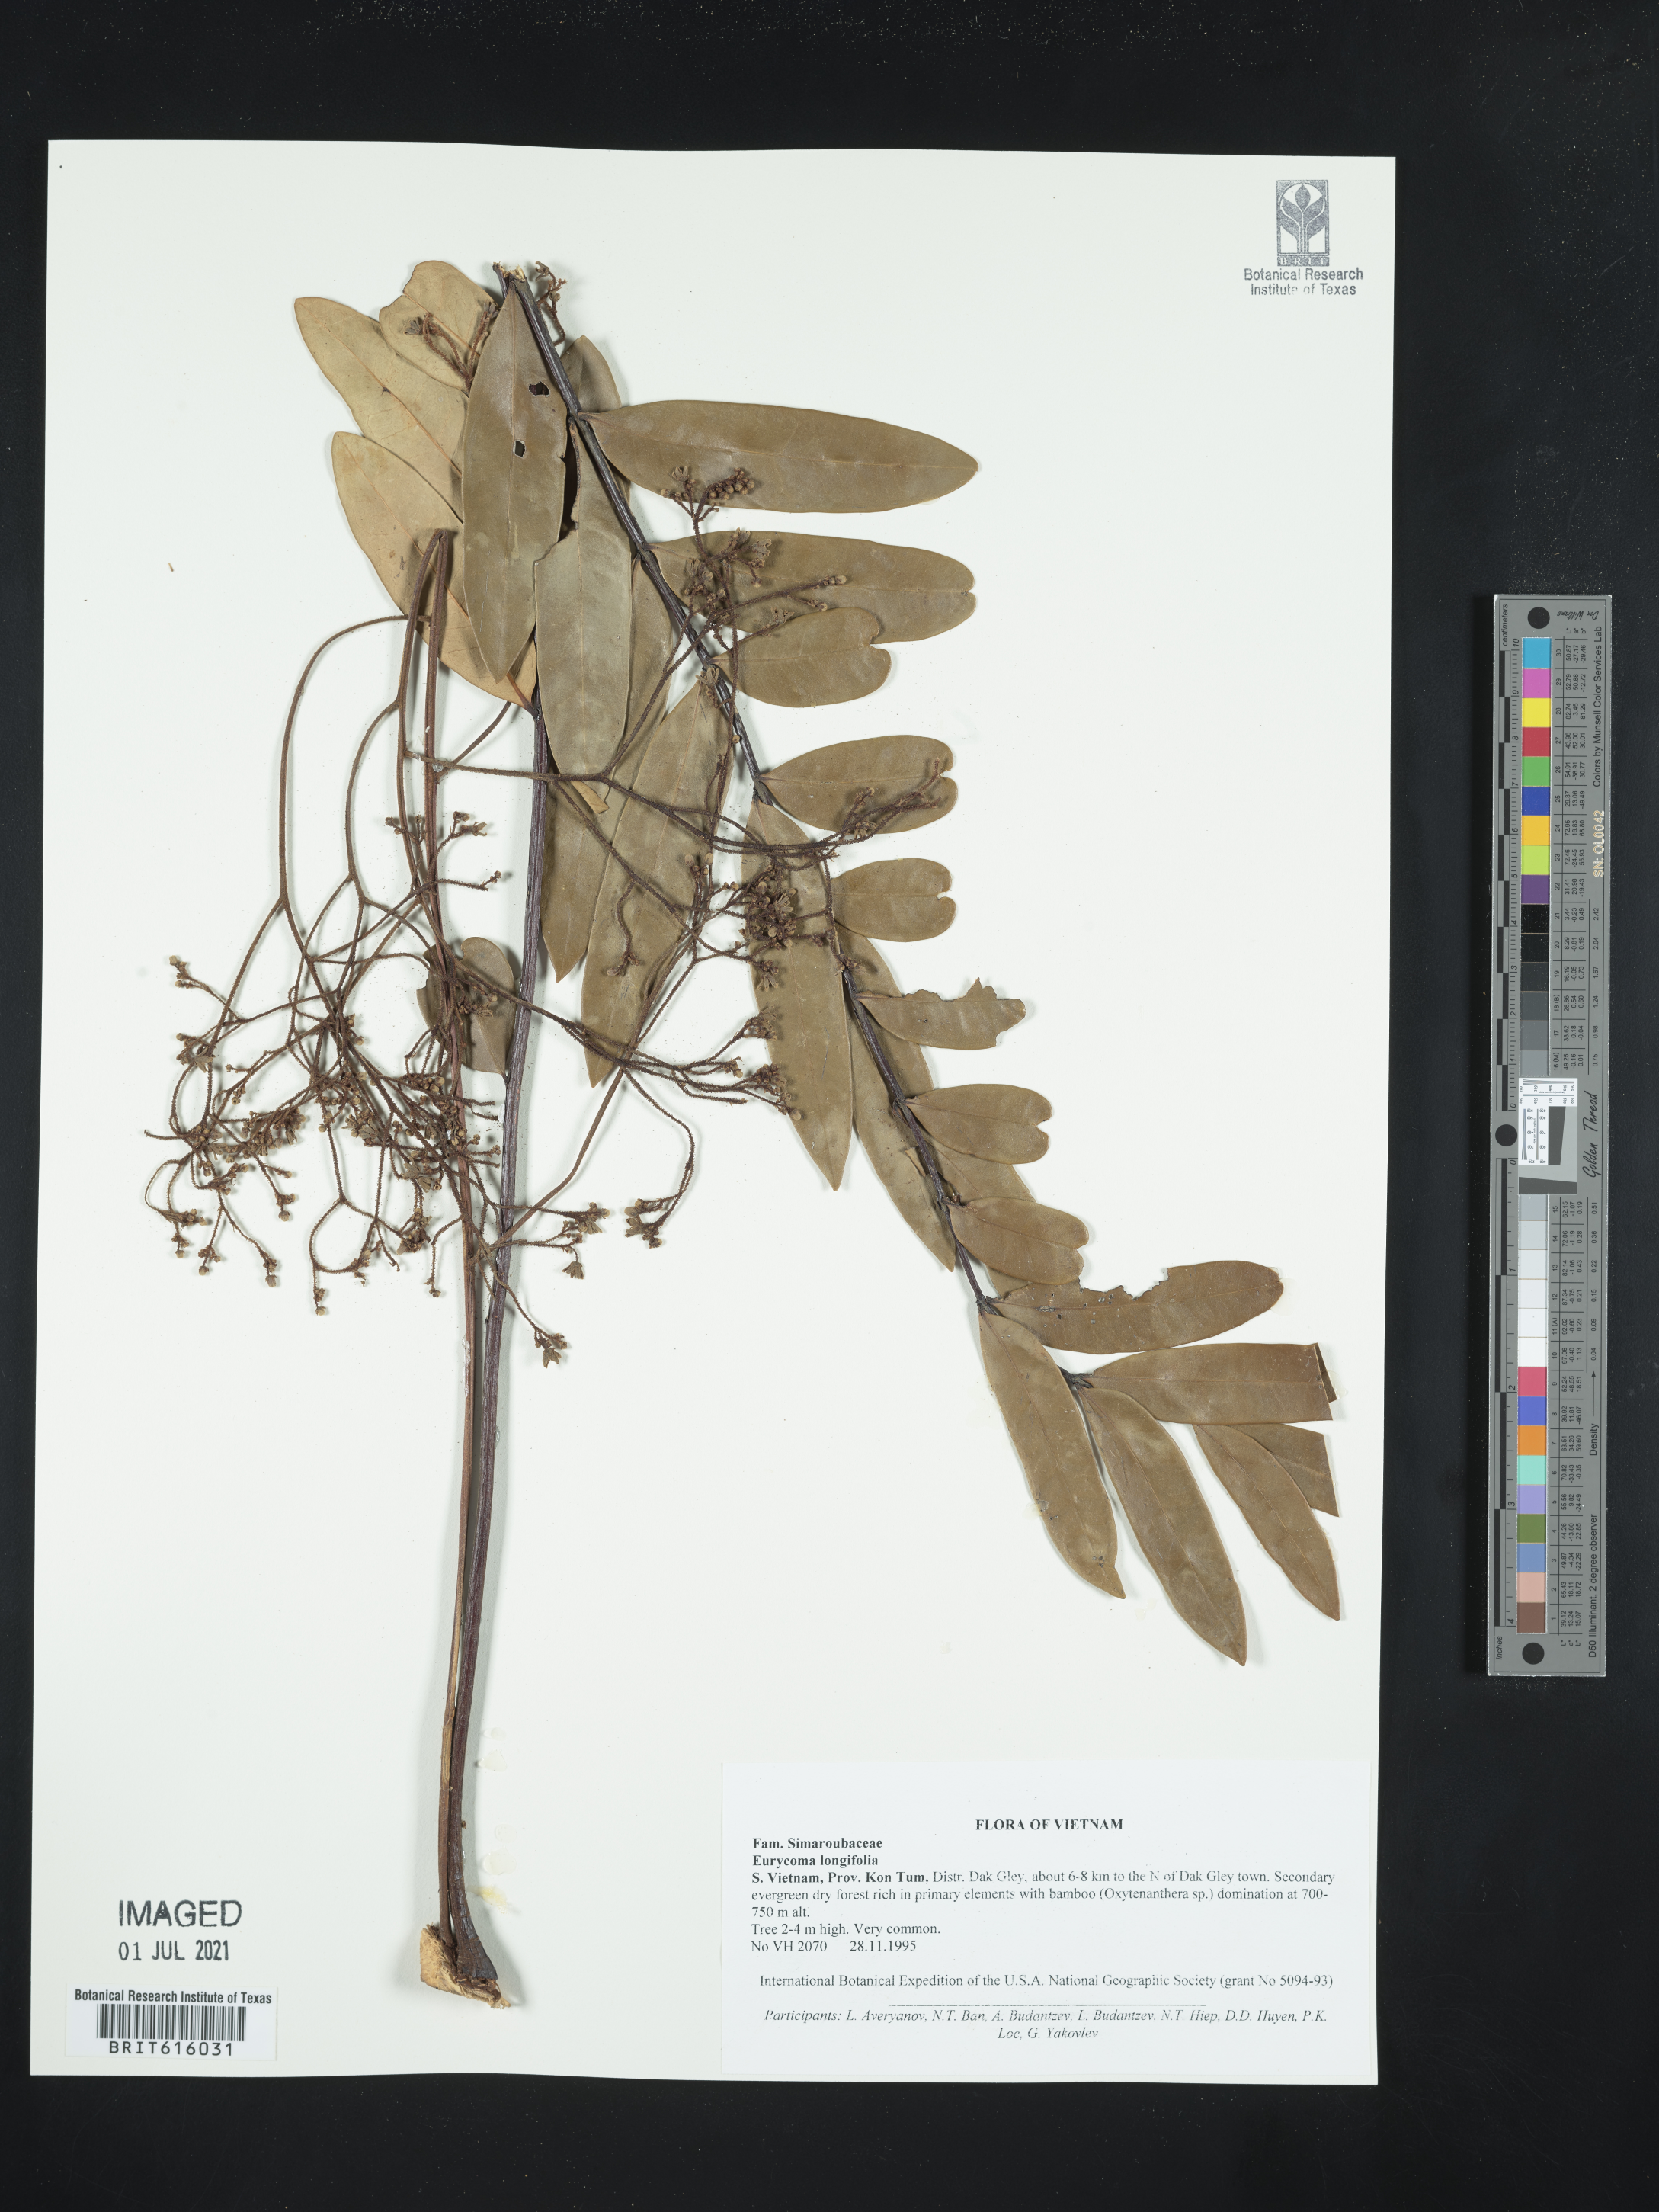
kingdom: Plantae
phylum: Tracheophyta
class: Magnoliopsida
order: Sapindales
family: Simaroubaceae
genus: Eurycoma
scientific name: Eurycoma longifolia
